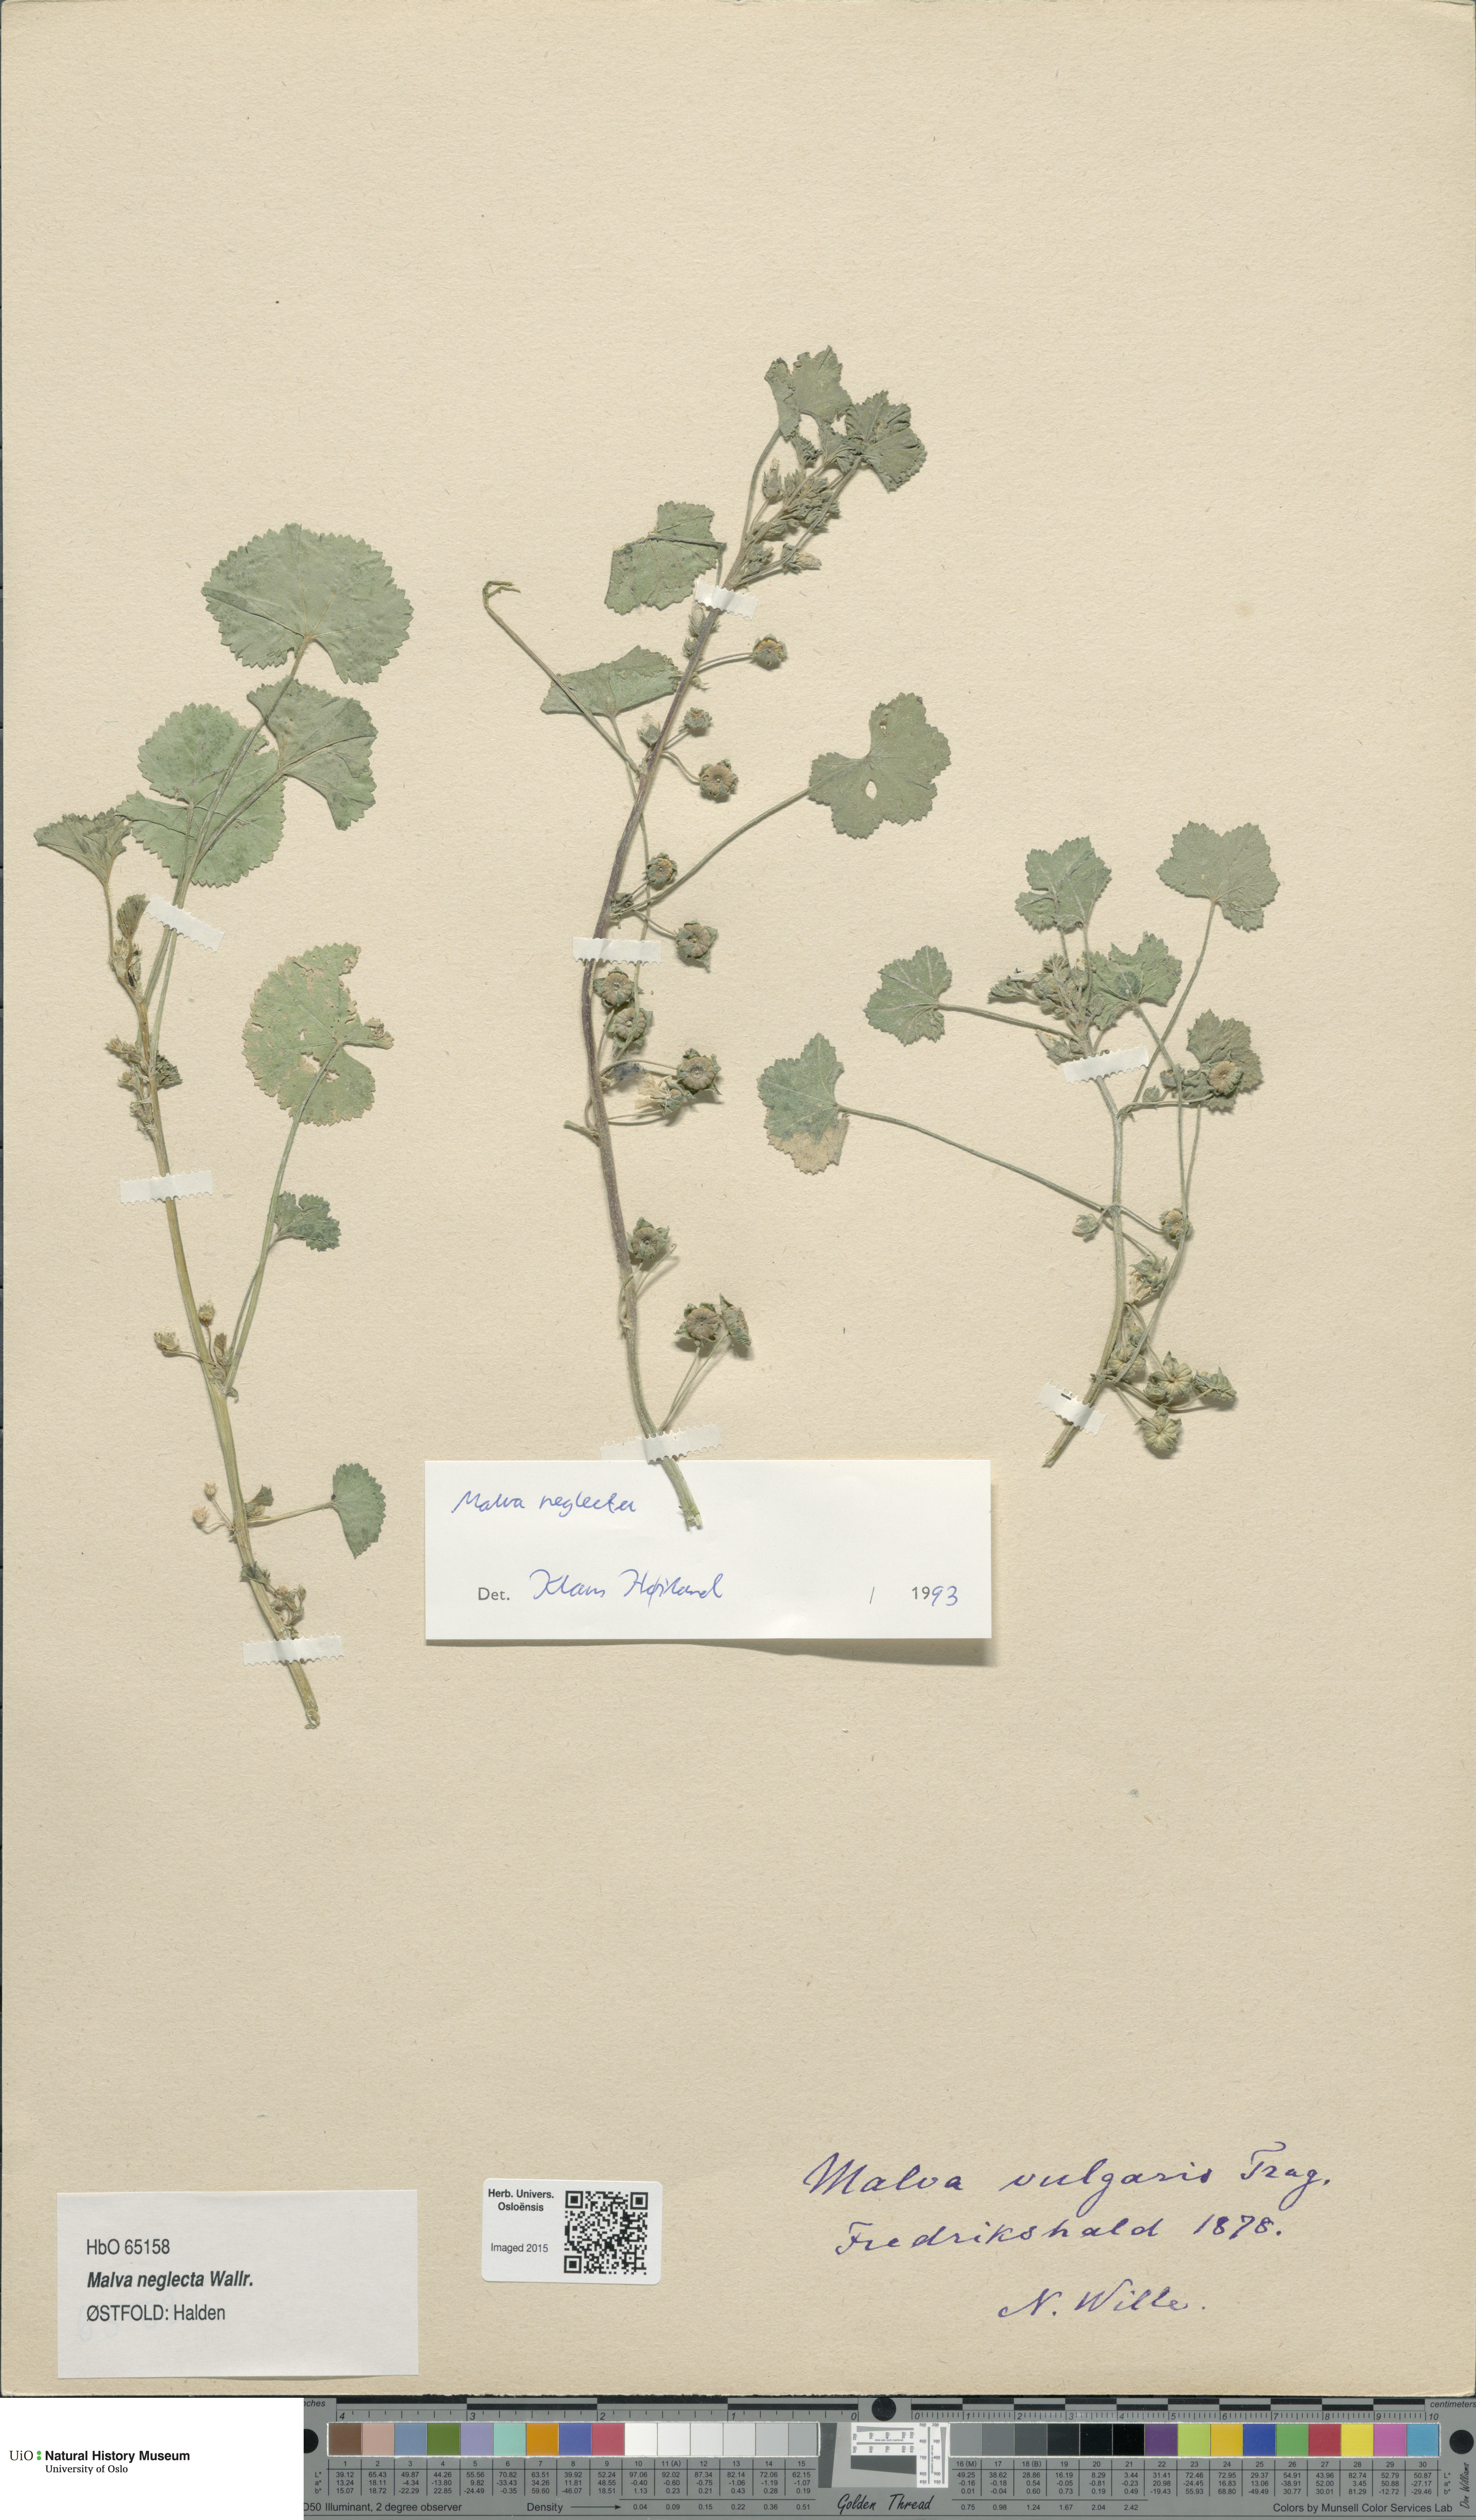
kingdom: Plantae
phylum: Tracheophyta
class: Magnoliopsida
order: Malvales
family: Malvaceae
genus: Malva
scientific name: Malva neglecta
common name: Common mallow
